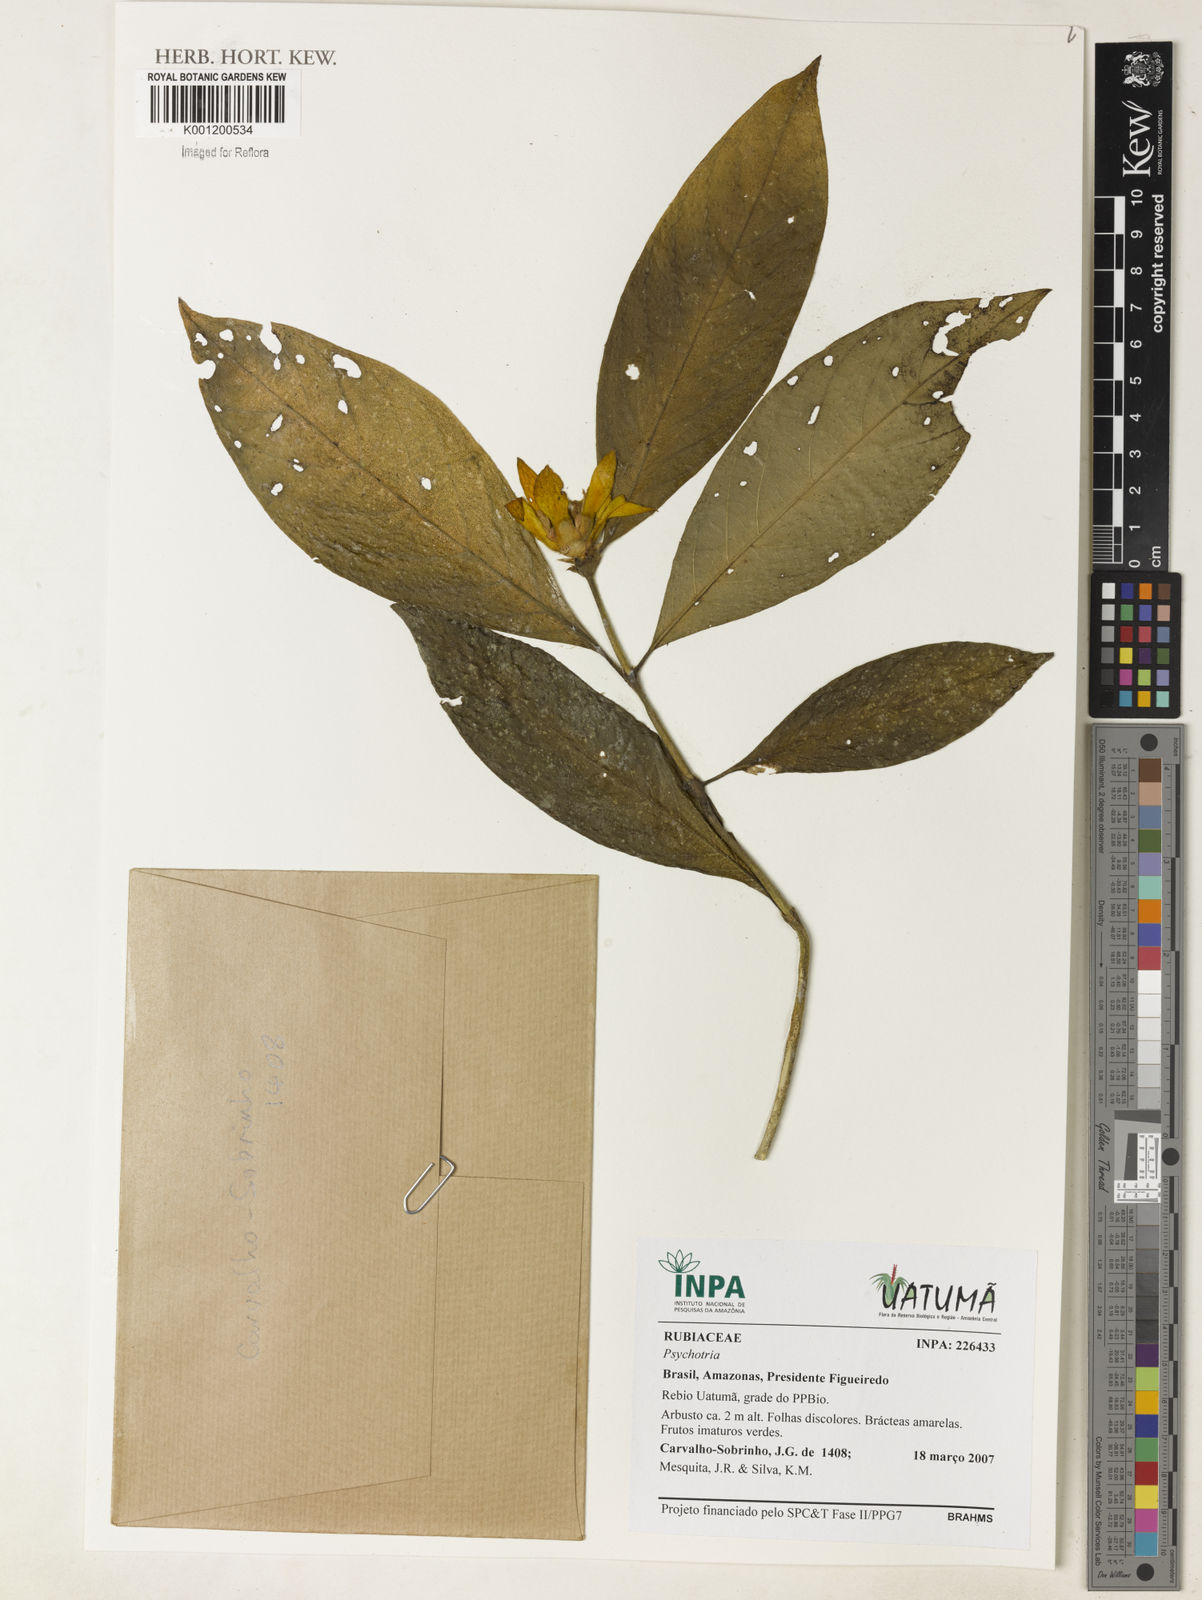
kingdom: Plantae
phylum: Tracheophyta
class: Magnoliopsida
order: Gentianales
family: Rubiaceae
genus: Psychotria
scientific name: Psychotria
